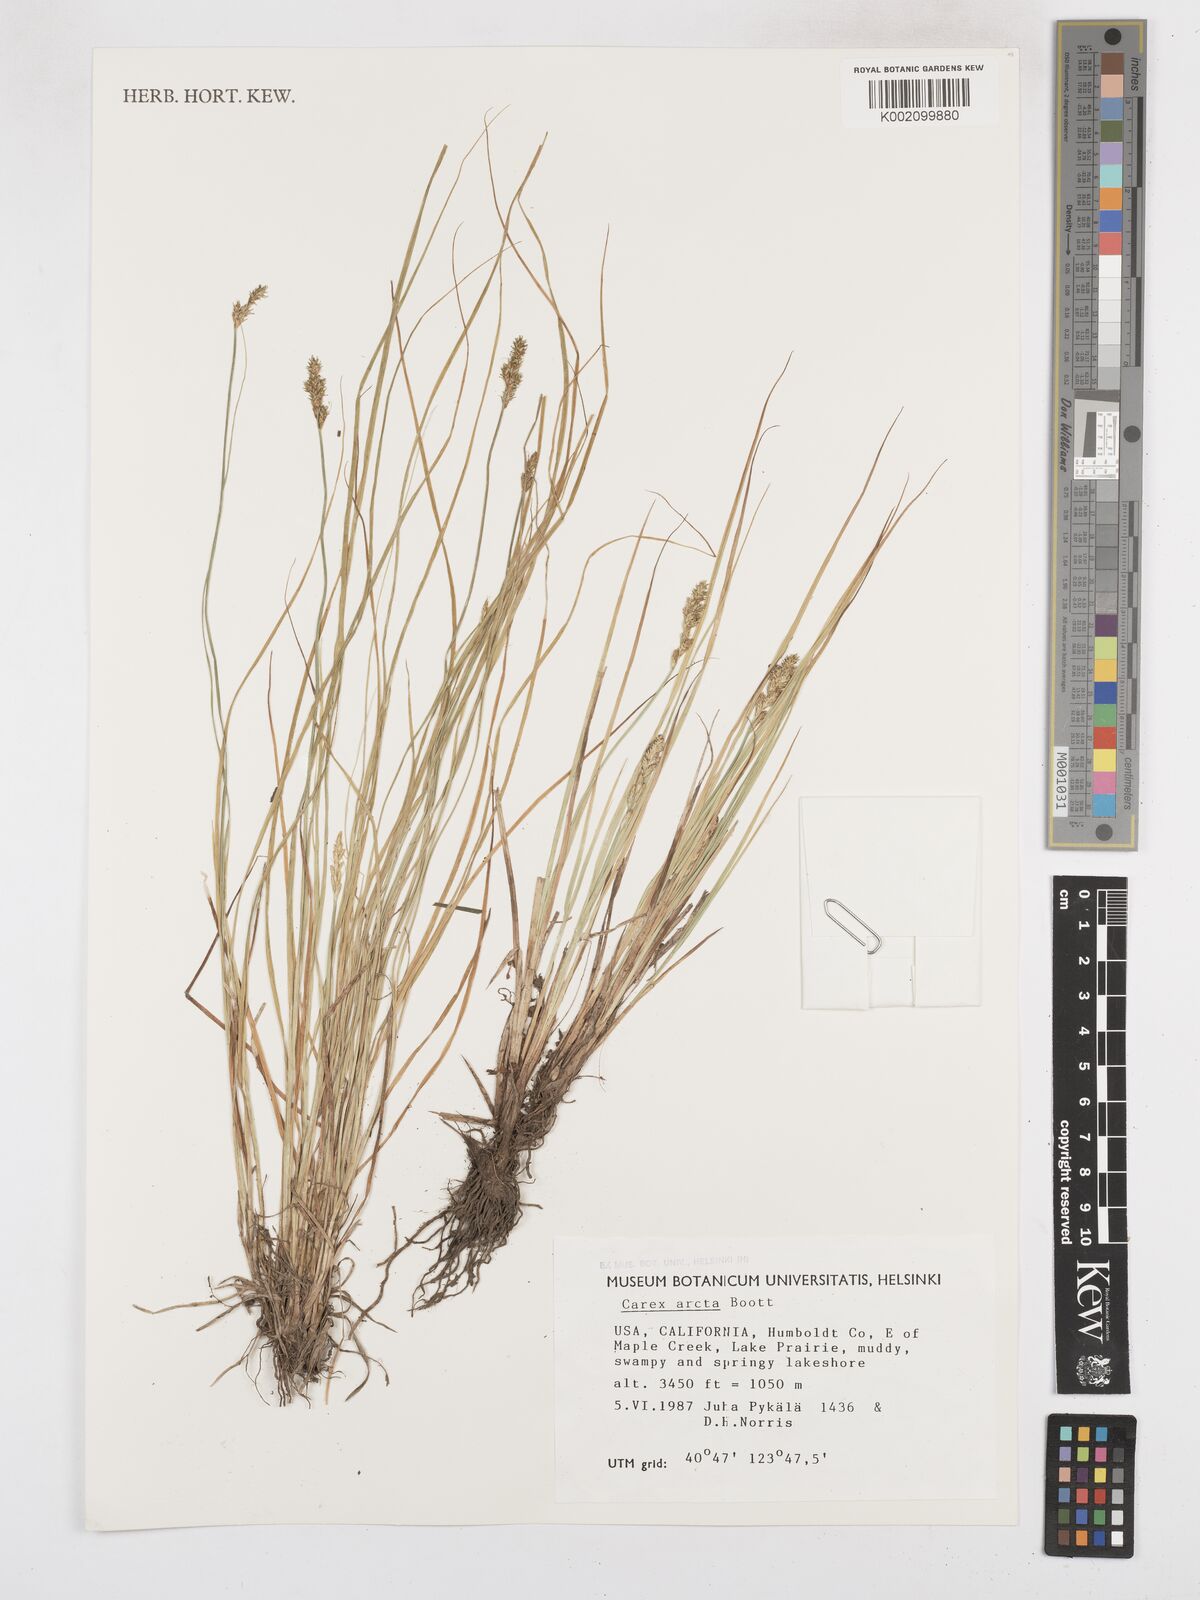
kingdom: Plantae
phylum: Tracheophyta
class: Liliopsida
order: Poales
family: Cyperaceae
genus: Carex
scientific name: Carex arcta
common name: Bear sedge
